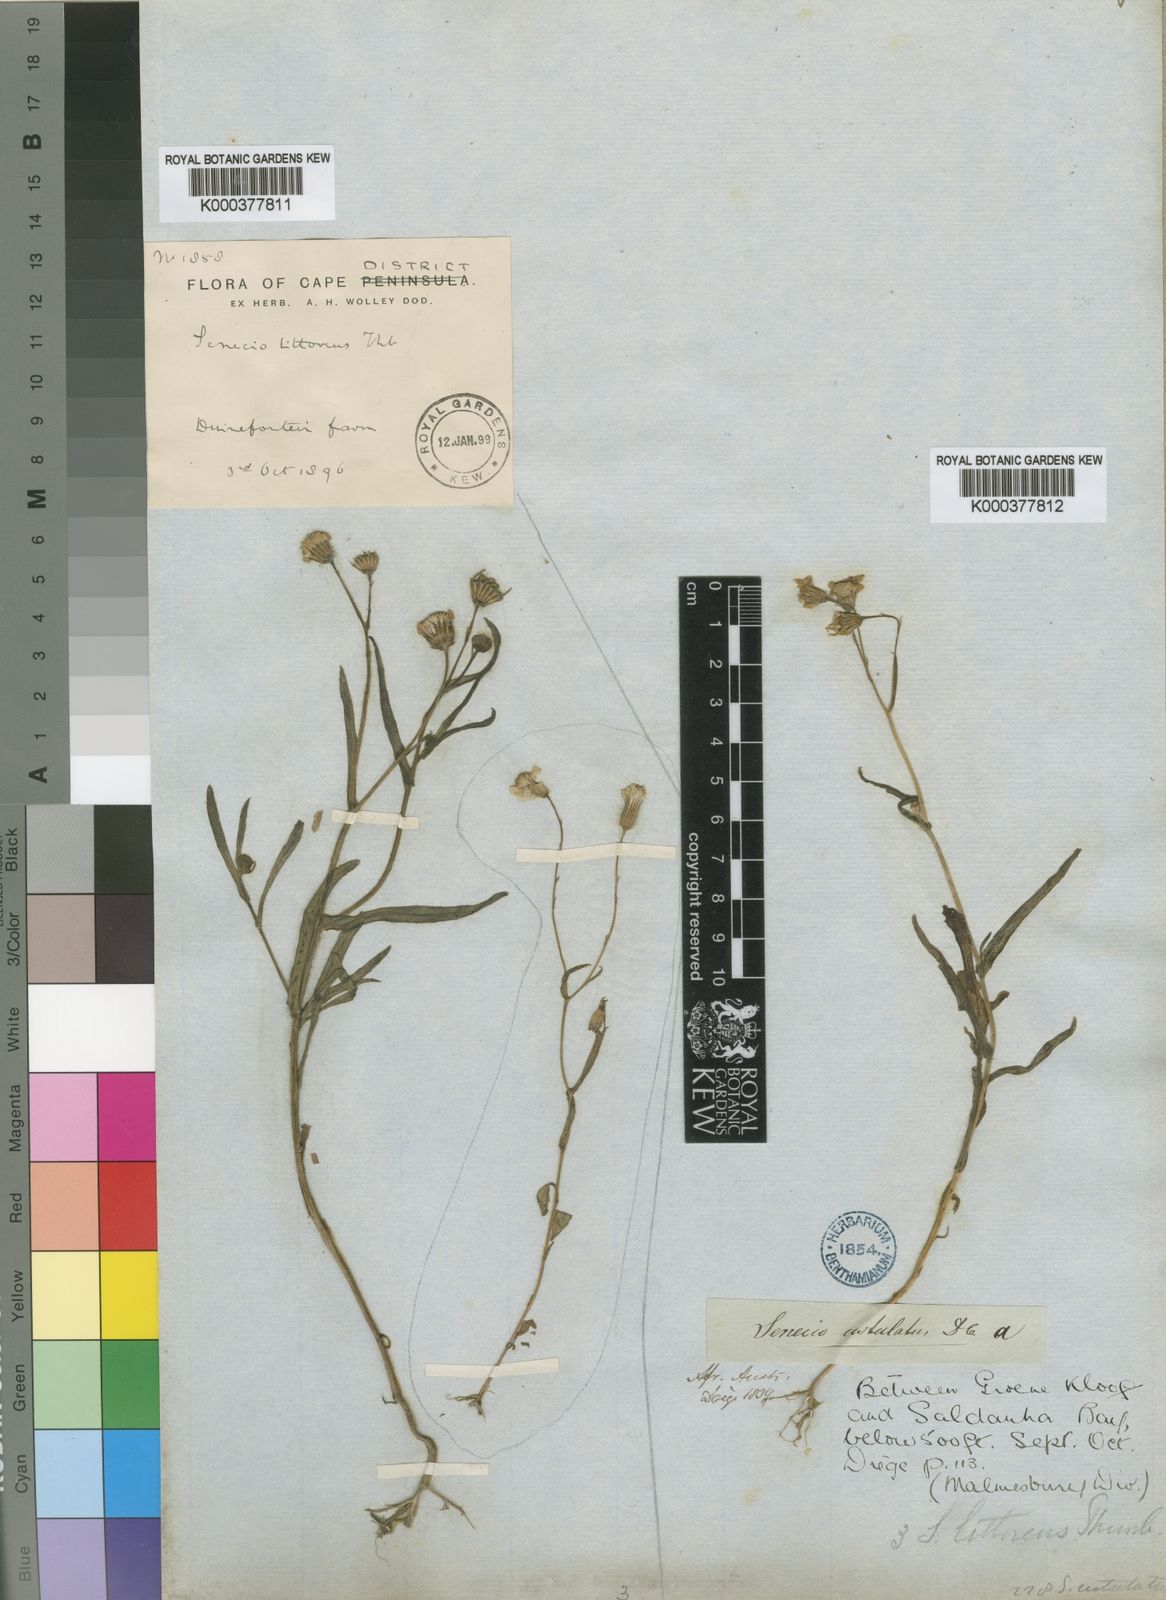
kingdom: Plantae
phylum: Tracheophyta
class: Magnoliopsida
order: Asterales
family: Asteraceae
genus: Senecio
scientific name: Senecio littoreus
